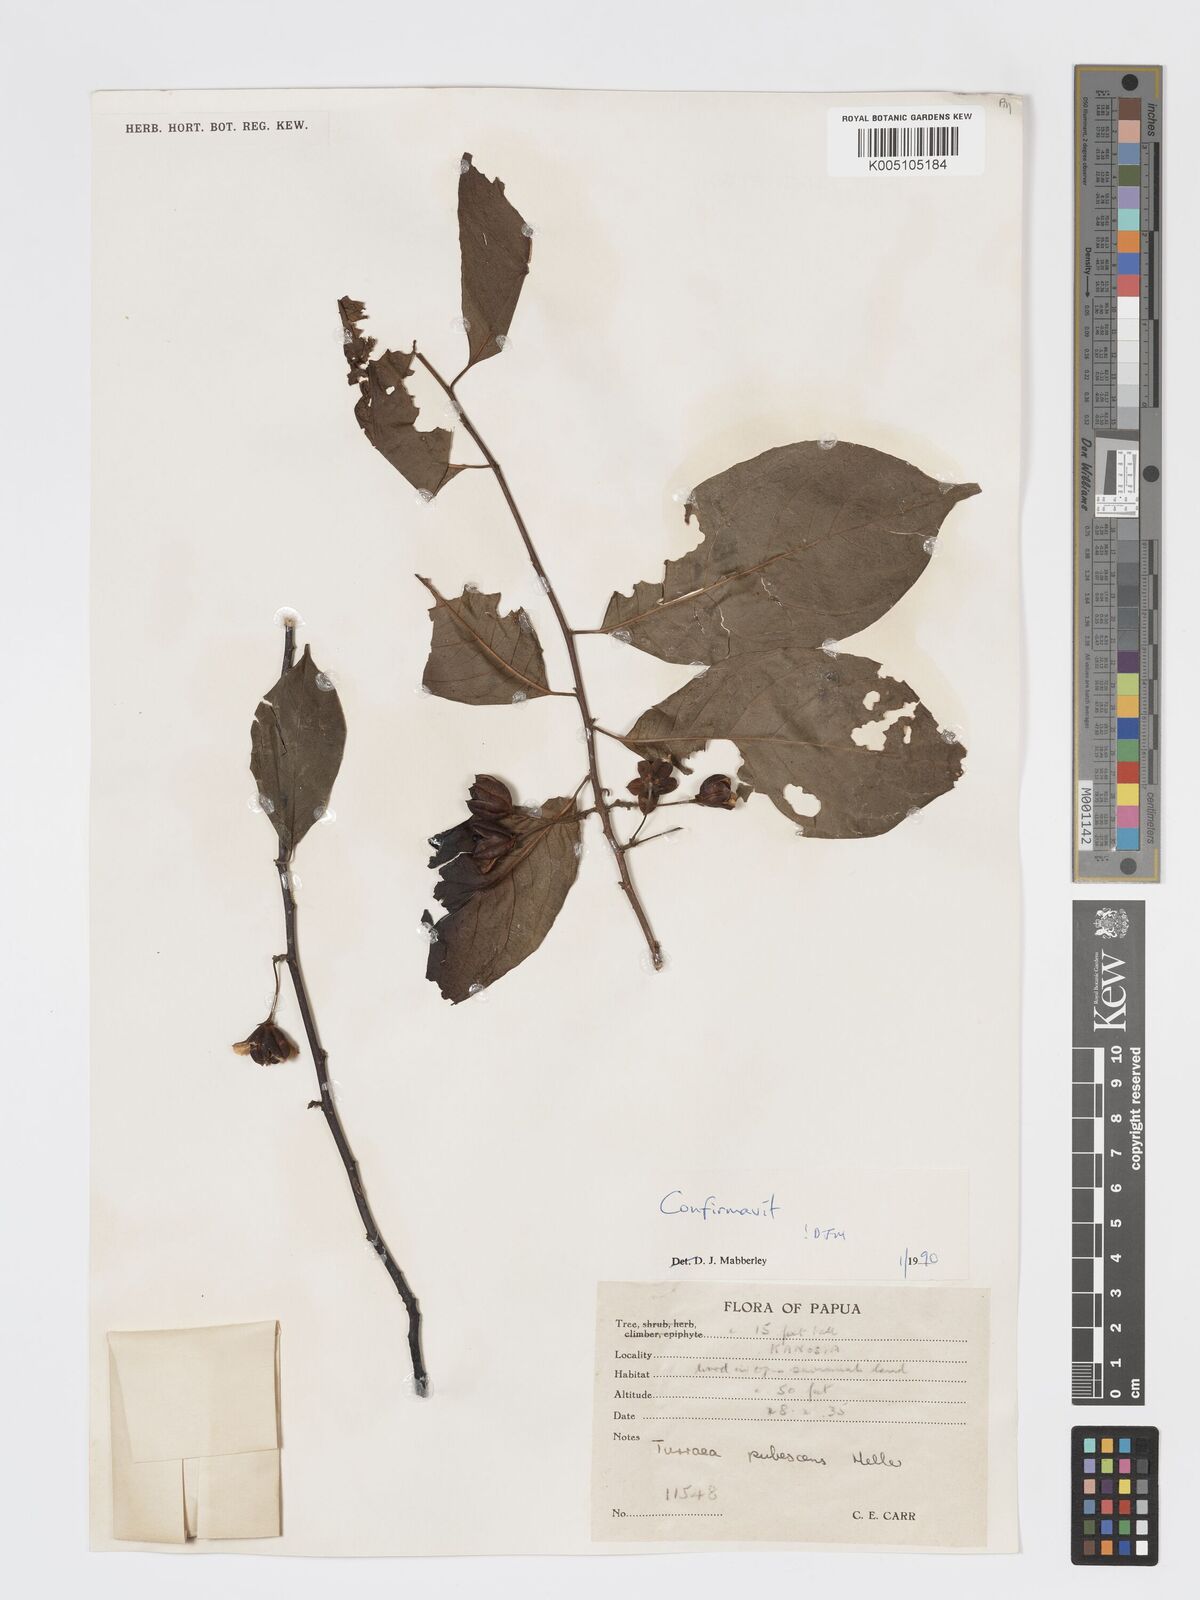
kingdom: Plantae
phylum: Tracheophyta
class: Magnoliopsida
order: Sapindales
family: Meliaceae
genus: Turraea
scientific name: Turraea
